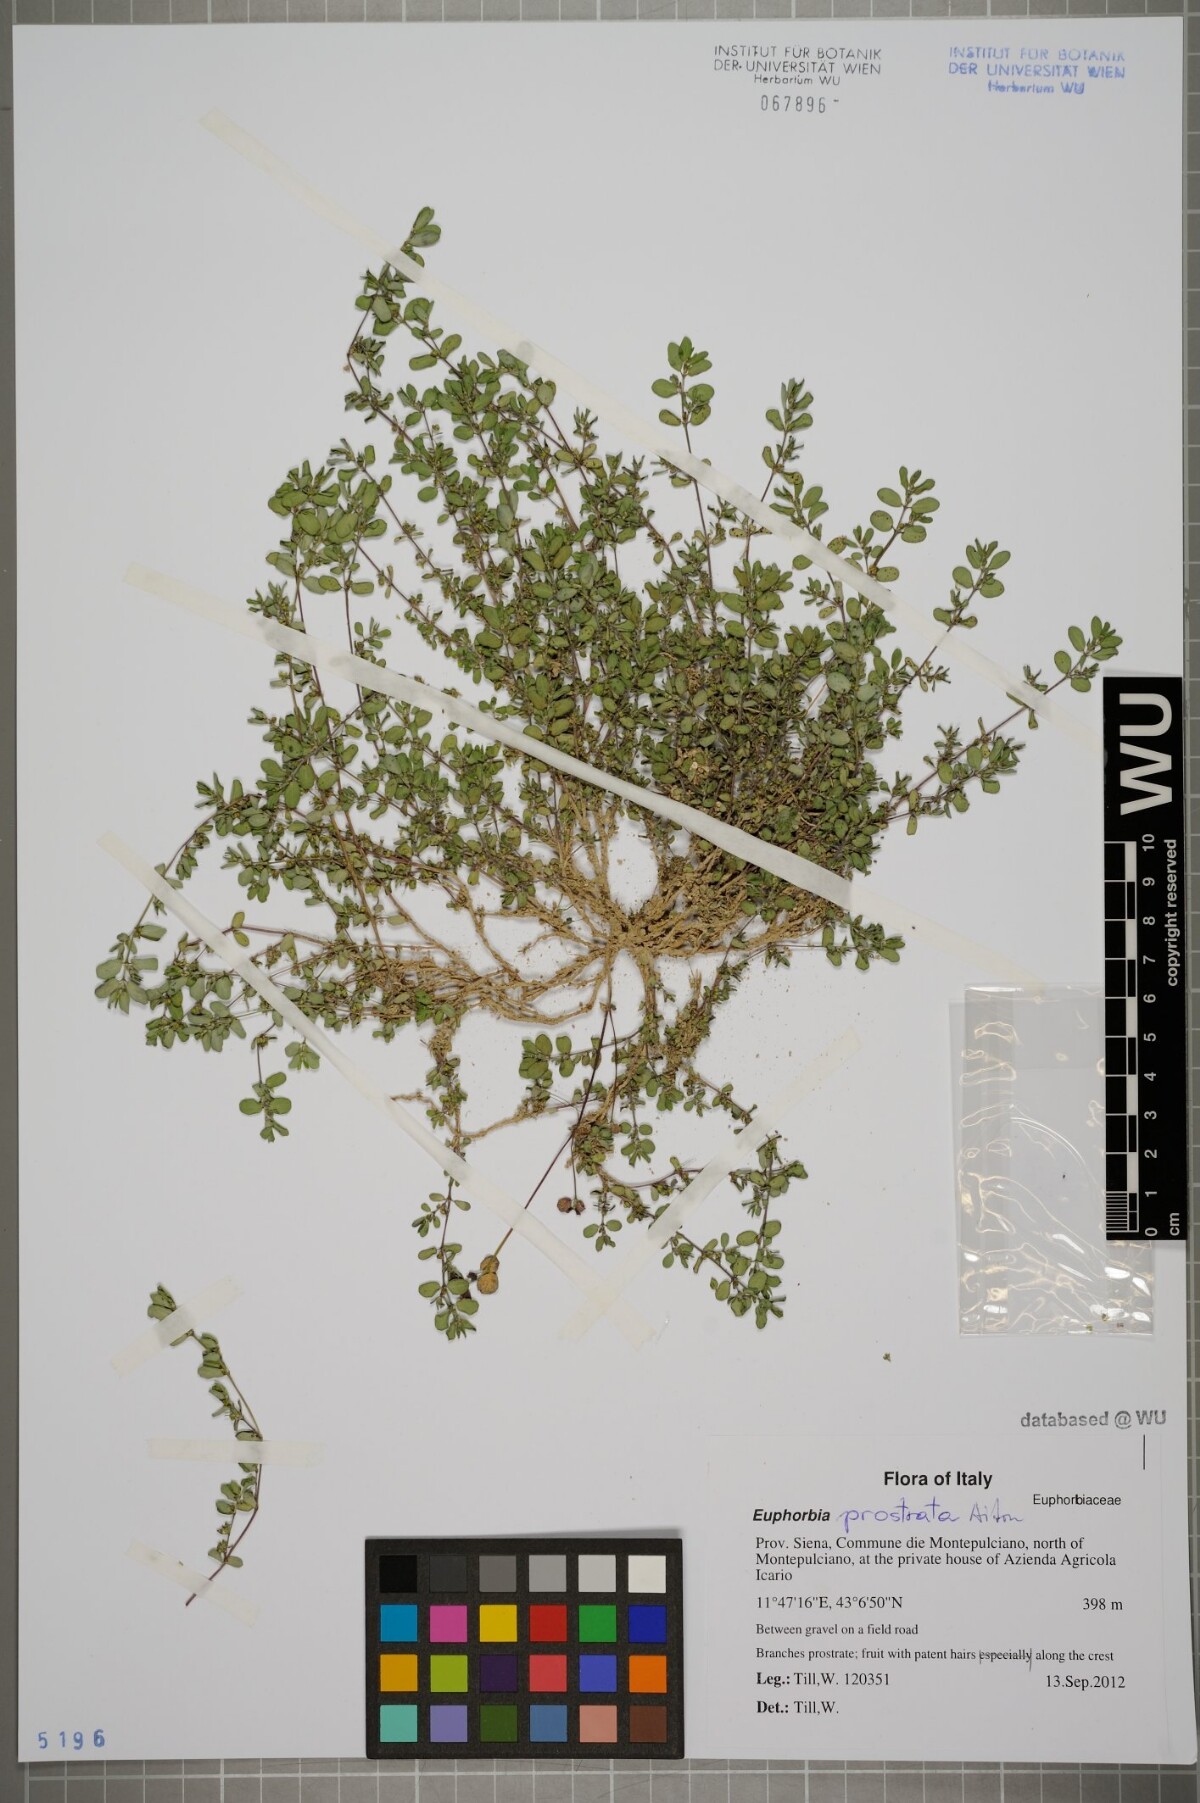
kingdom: Plantae
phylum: Tracheophyta
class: Magnoliopsida
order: Malpighiales
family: Euphorbiaceae
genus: Euphorbia
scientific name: Euphorbia prostrata
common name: Prostrate sandmat
